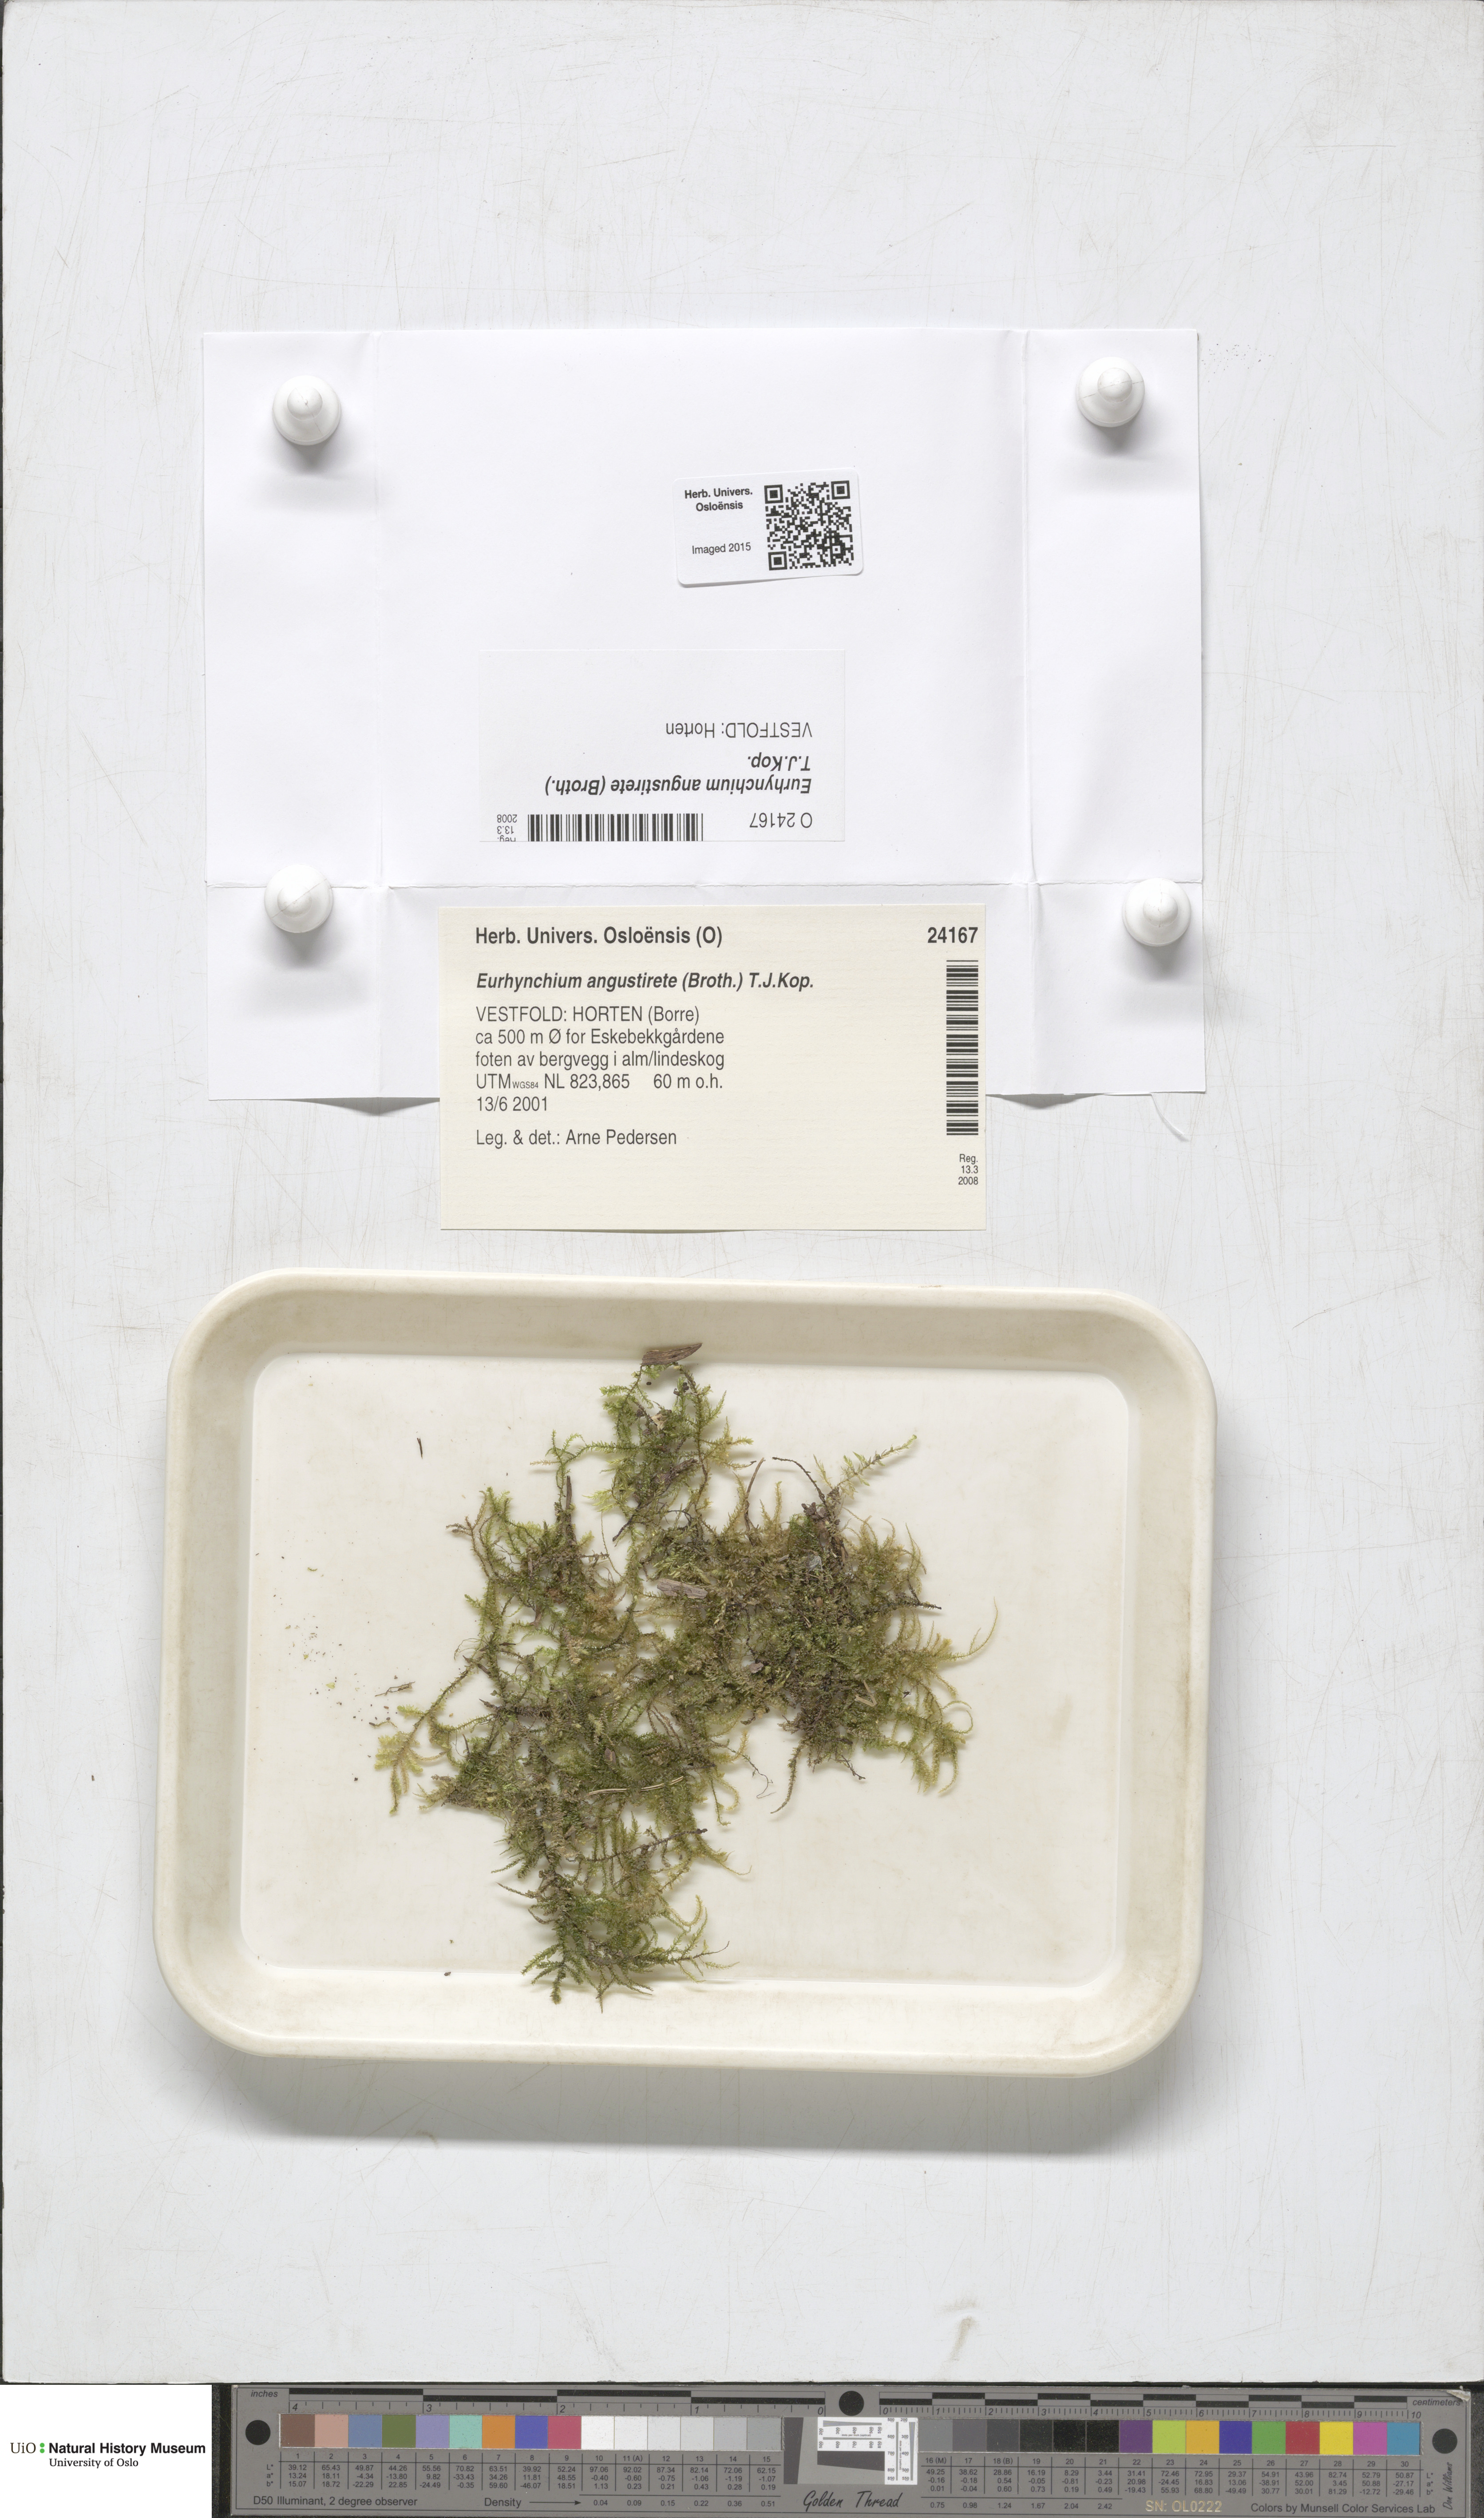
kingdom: Plantae
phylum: Bryophyta
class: Bryopsida
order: Hypnales
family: Brachytheciaceae
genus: Eurhynchium
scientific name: Eurhynchium angustirete
